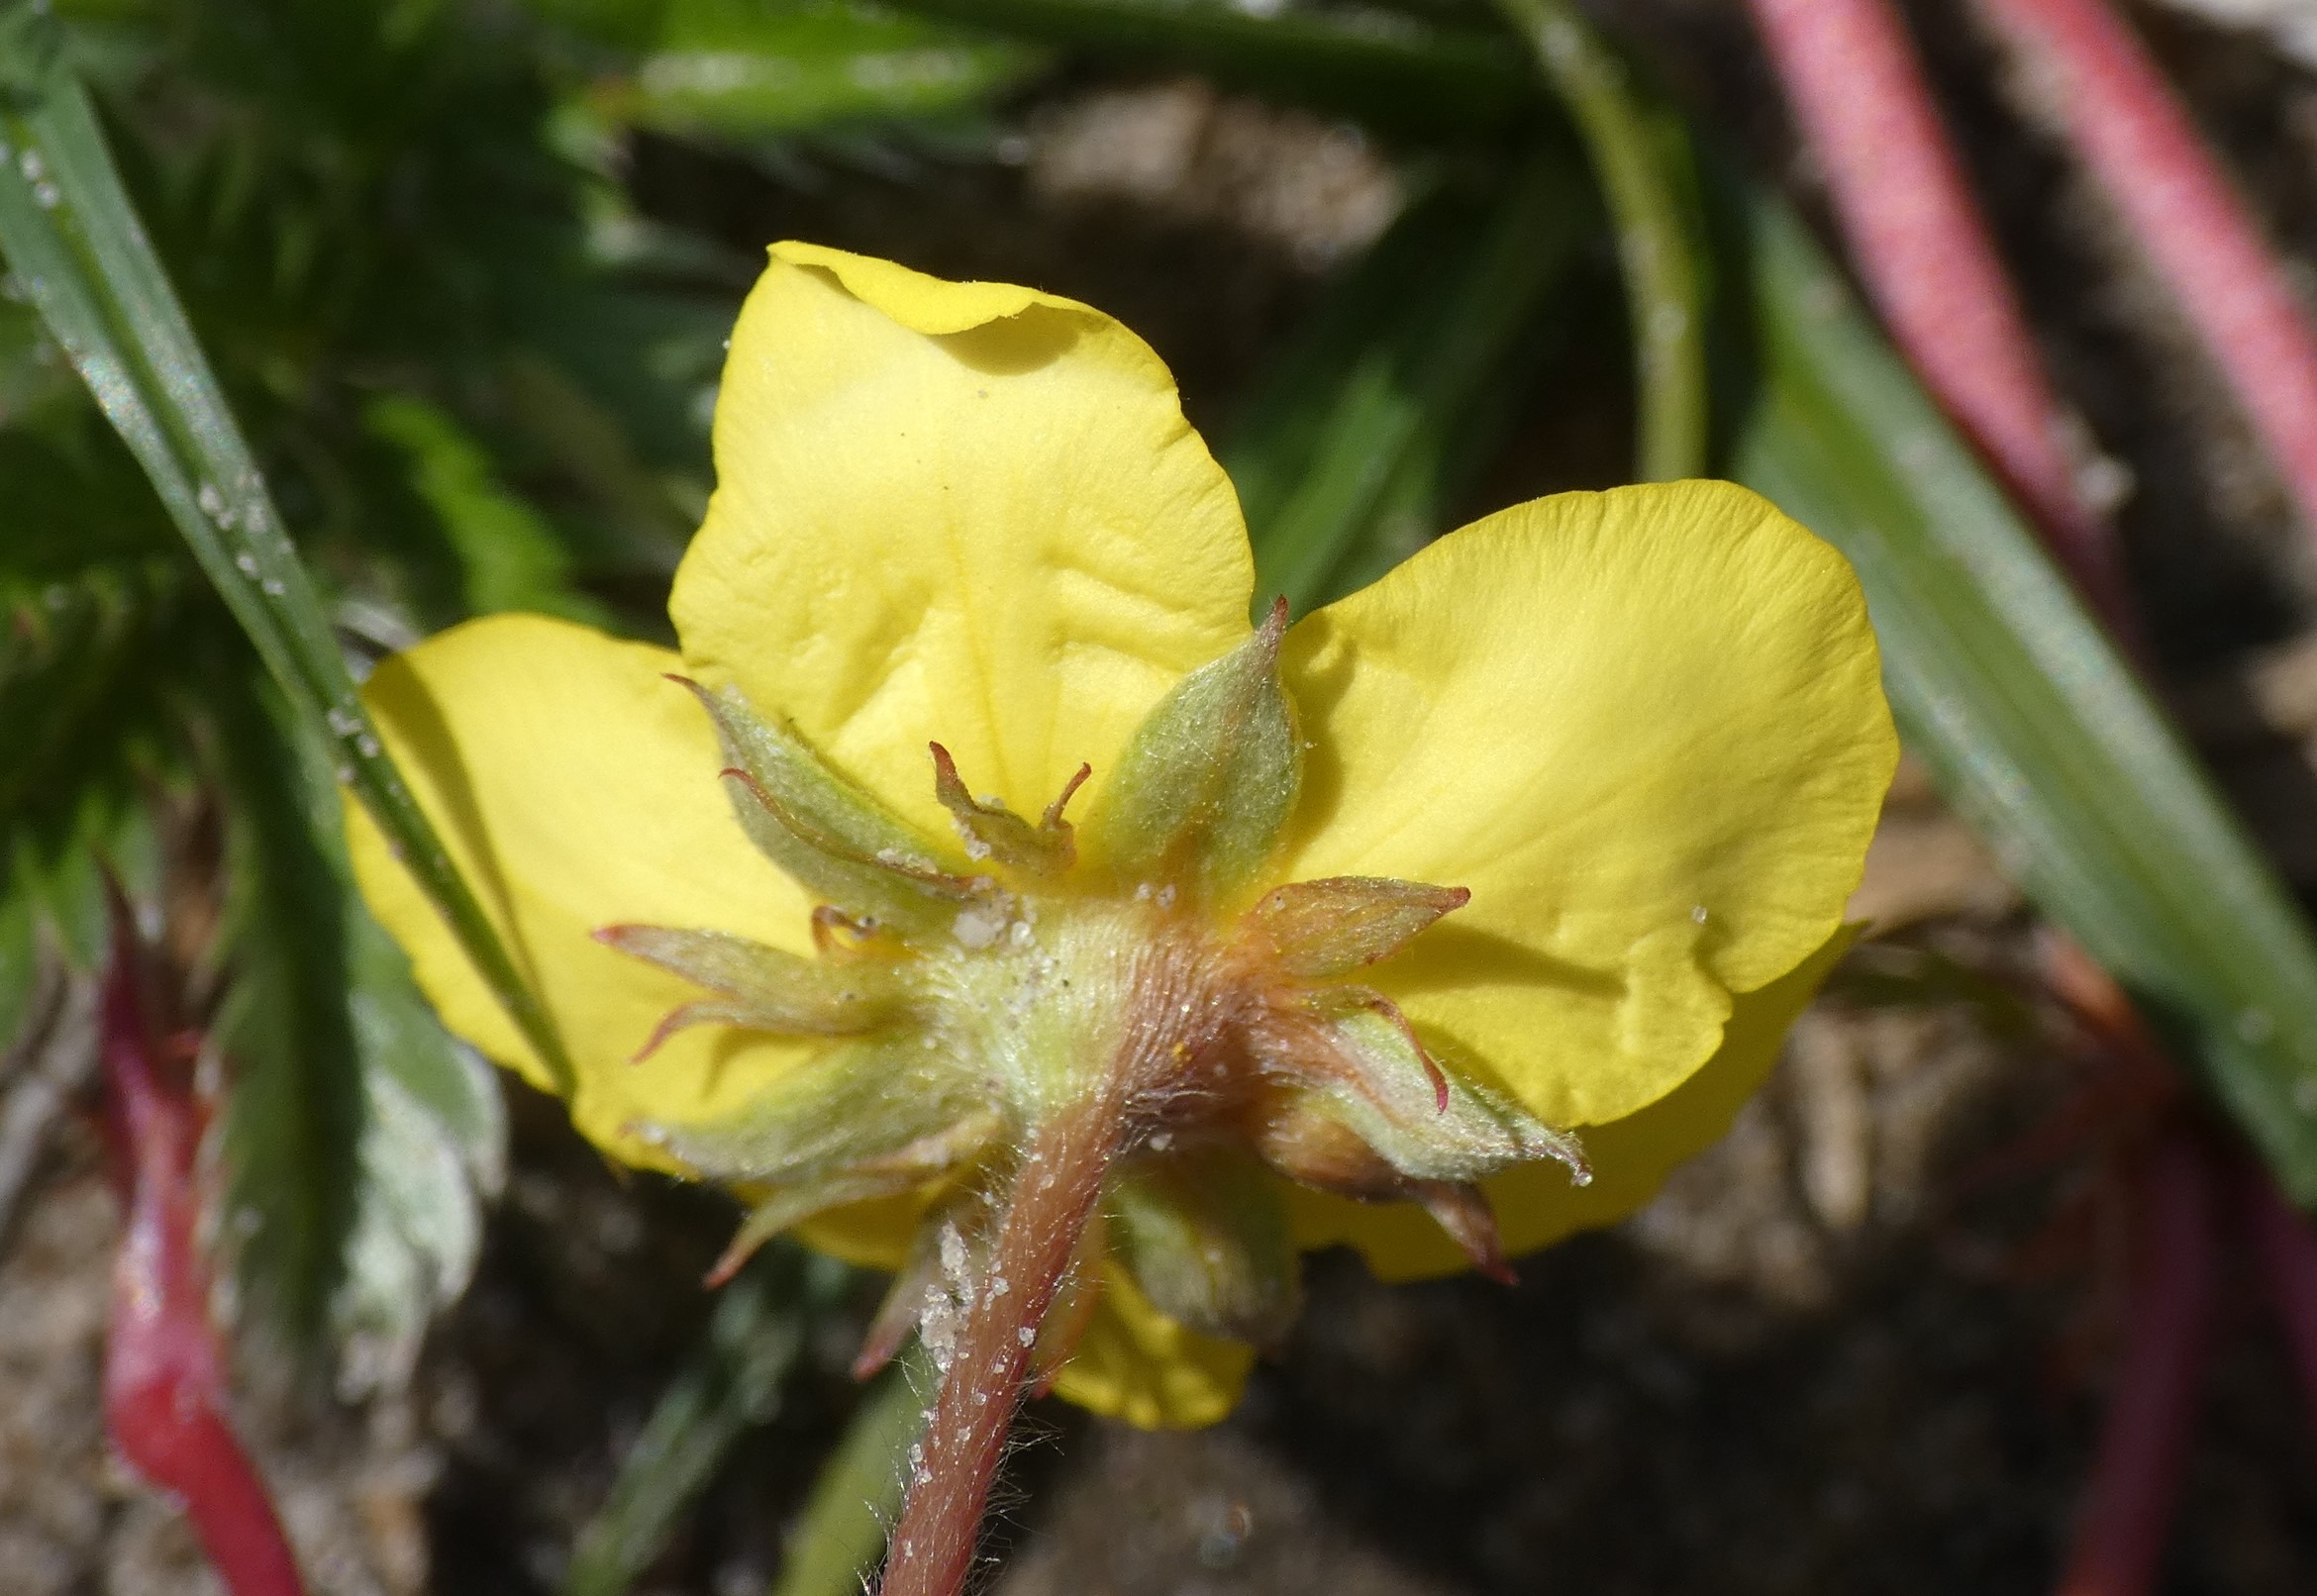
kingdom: Plantae
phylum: Tracheophyta
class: Magnoliopsida
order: Rosales
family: Rosaceae
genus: Argentina
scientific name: Argentina anserina
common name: Gåsepotentil
